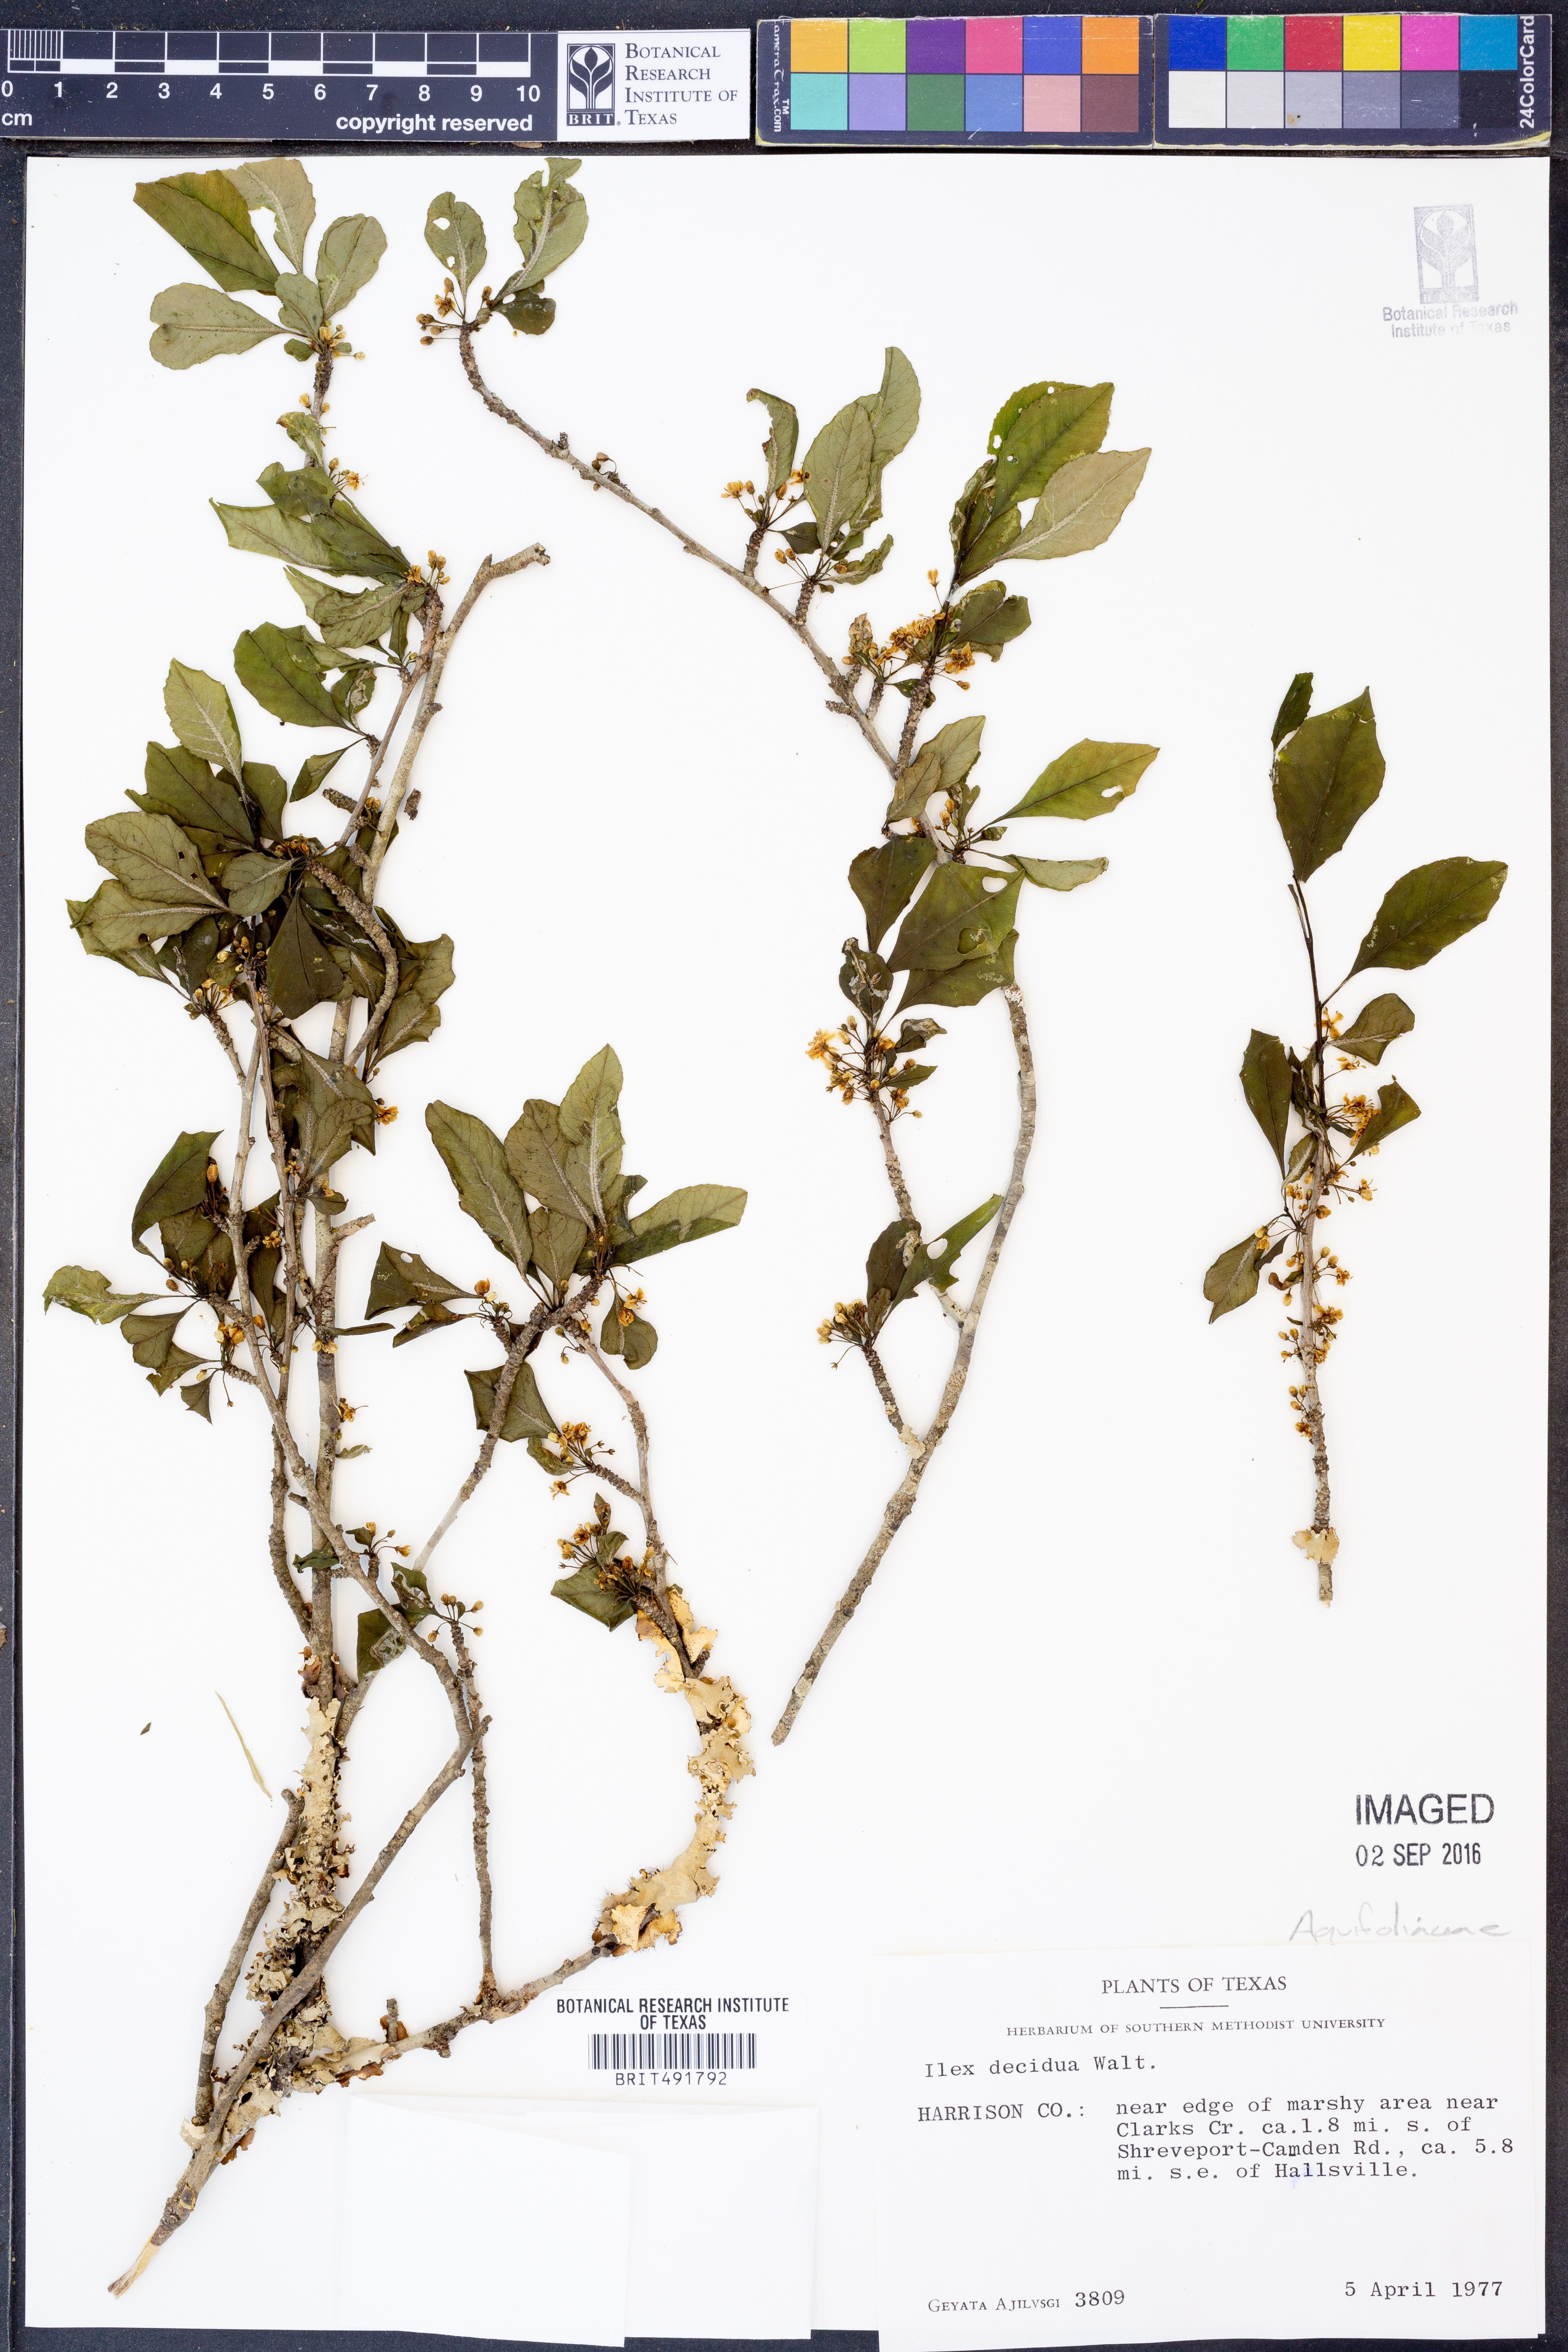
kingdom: Plantae
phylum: Tracheophyta
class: Magnoliopsida
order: Aquifoliales
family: Aquifoliaceae
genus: Ilex
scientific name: Ilex decidua
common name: Possum-haw
